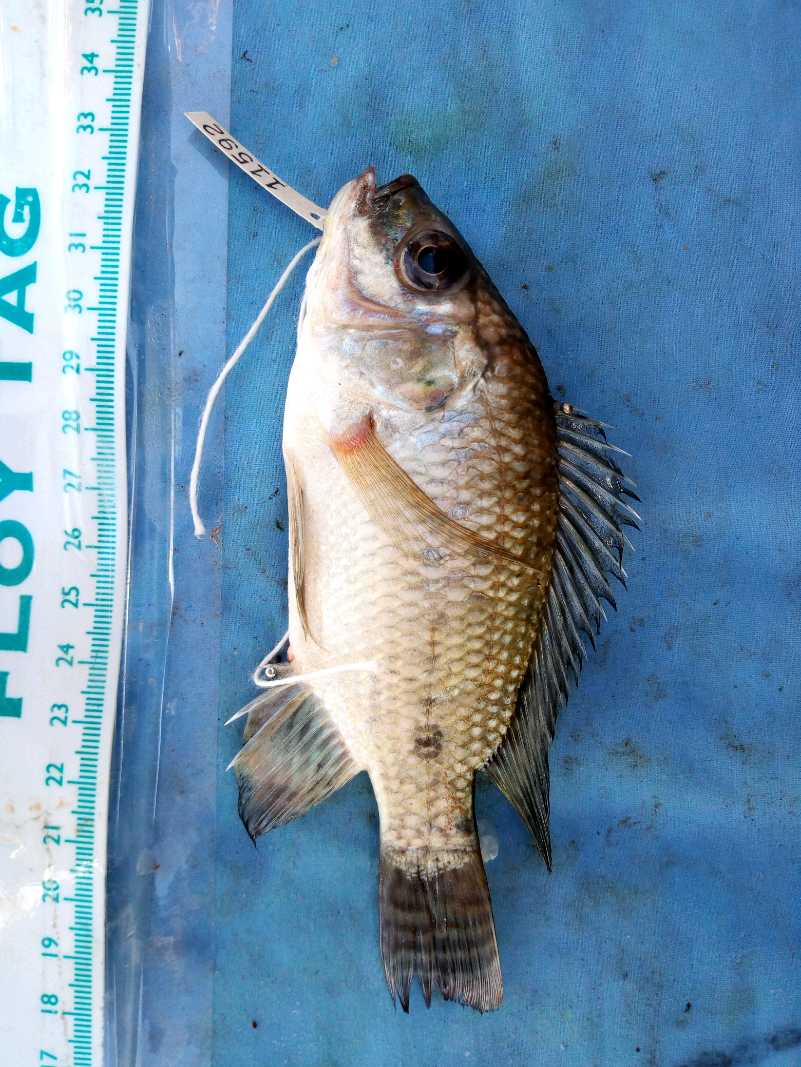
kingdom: Animalia
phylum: Chordata
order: Perciformes
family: Cichlidae
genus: Oreochromis
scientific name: Oreochromis niloticus
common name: Nile tilapia
